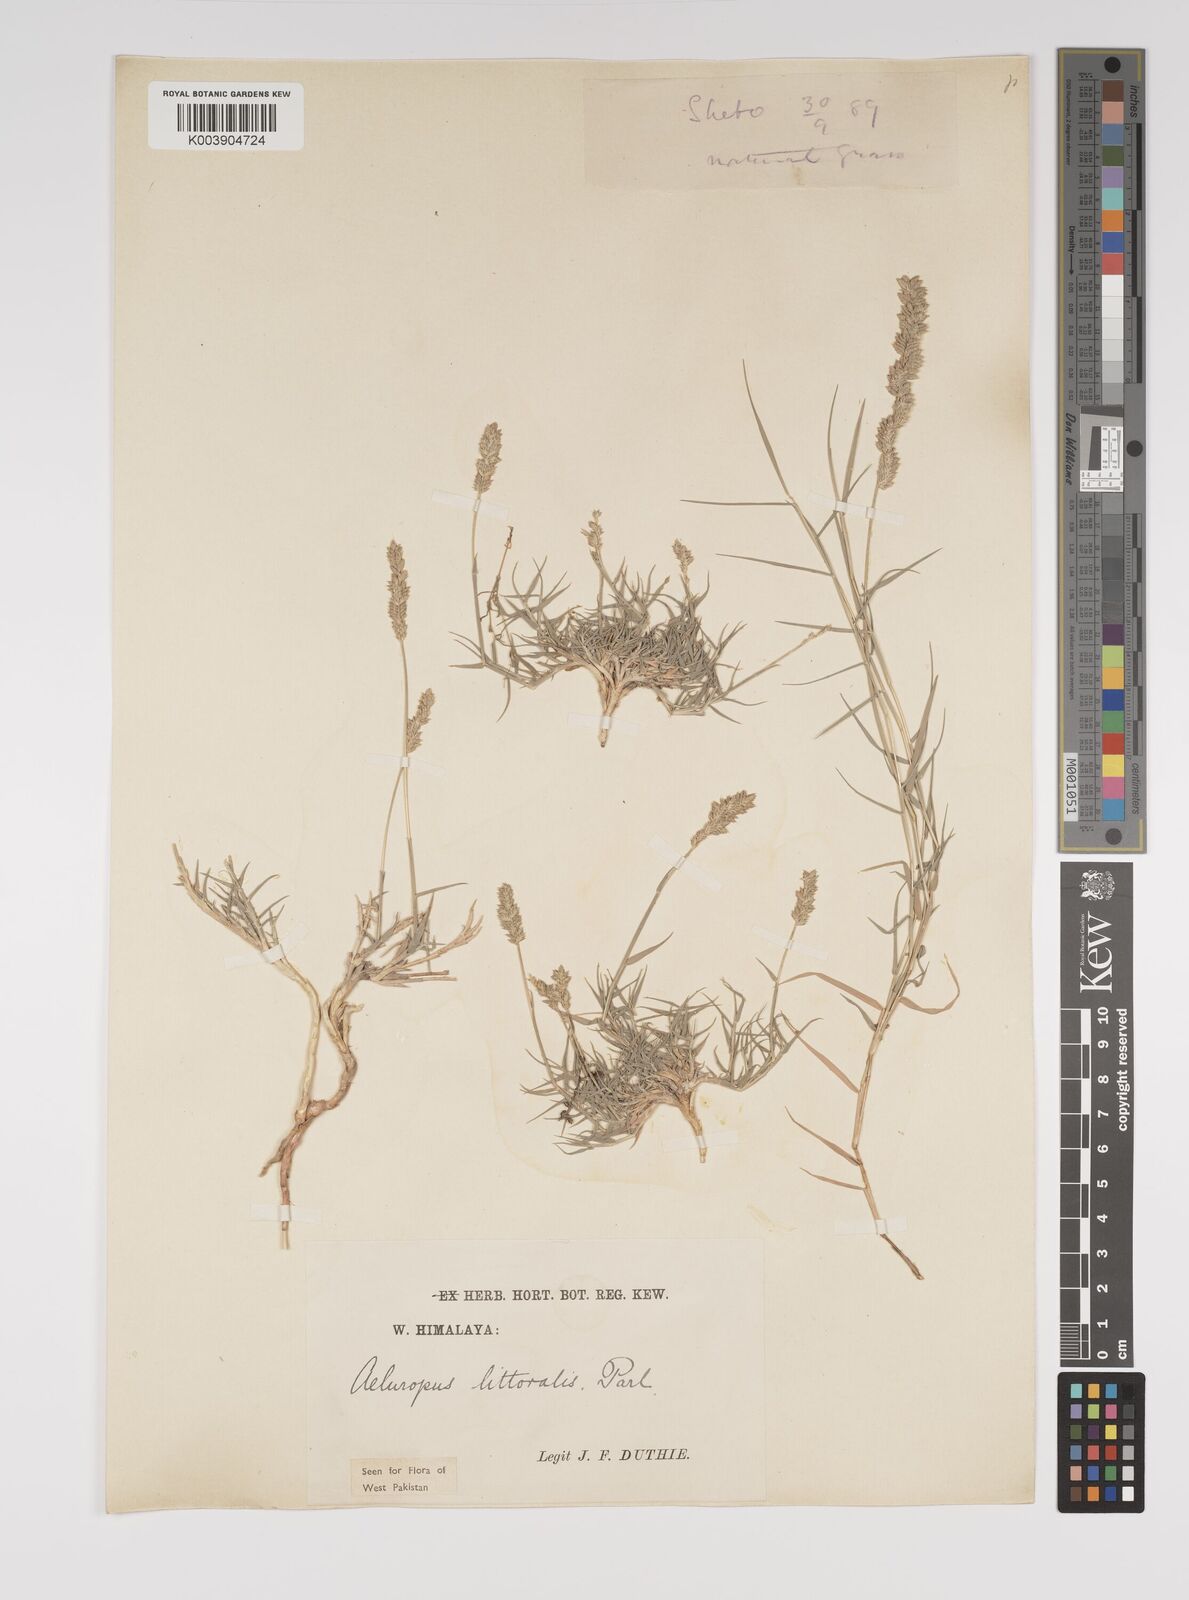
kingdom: Plantae
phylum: Tracheophyta
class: Liliopsida
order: Poales
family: Poaceae
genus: Aeluropus
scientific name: Aeluropus littoralis
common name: Indian walnut
